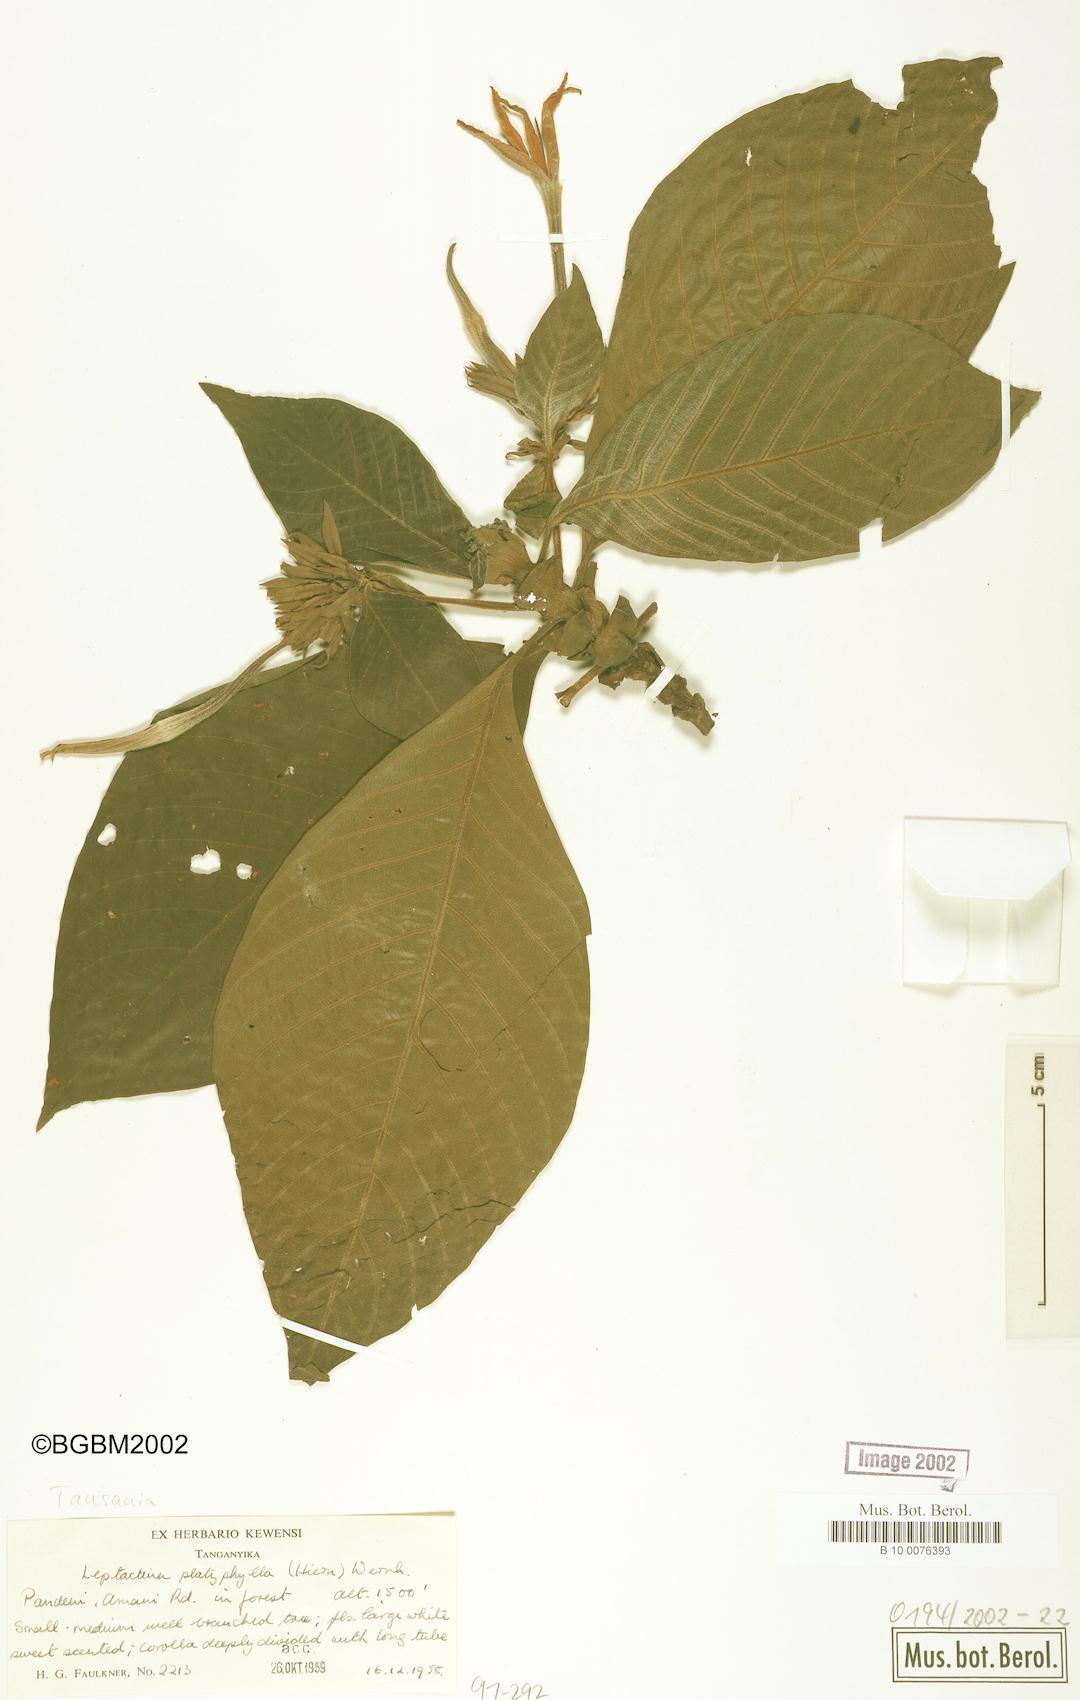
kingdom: Plantae
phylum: Tracheophyta
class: Magnoliopsida
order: Gentianales
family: Rubiaceae
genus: Leptactina
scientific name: Leptactina platyphylla
